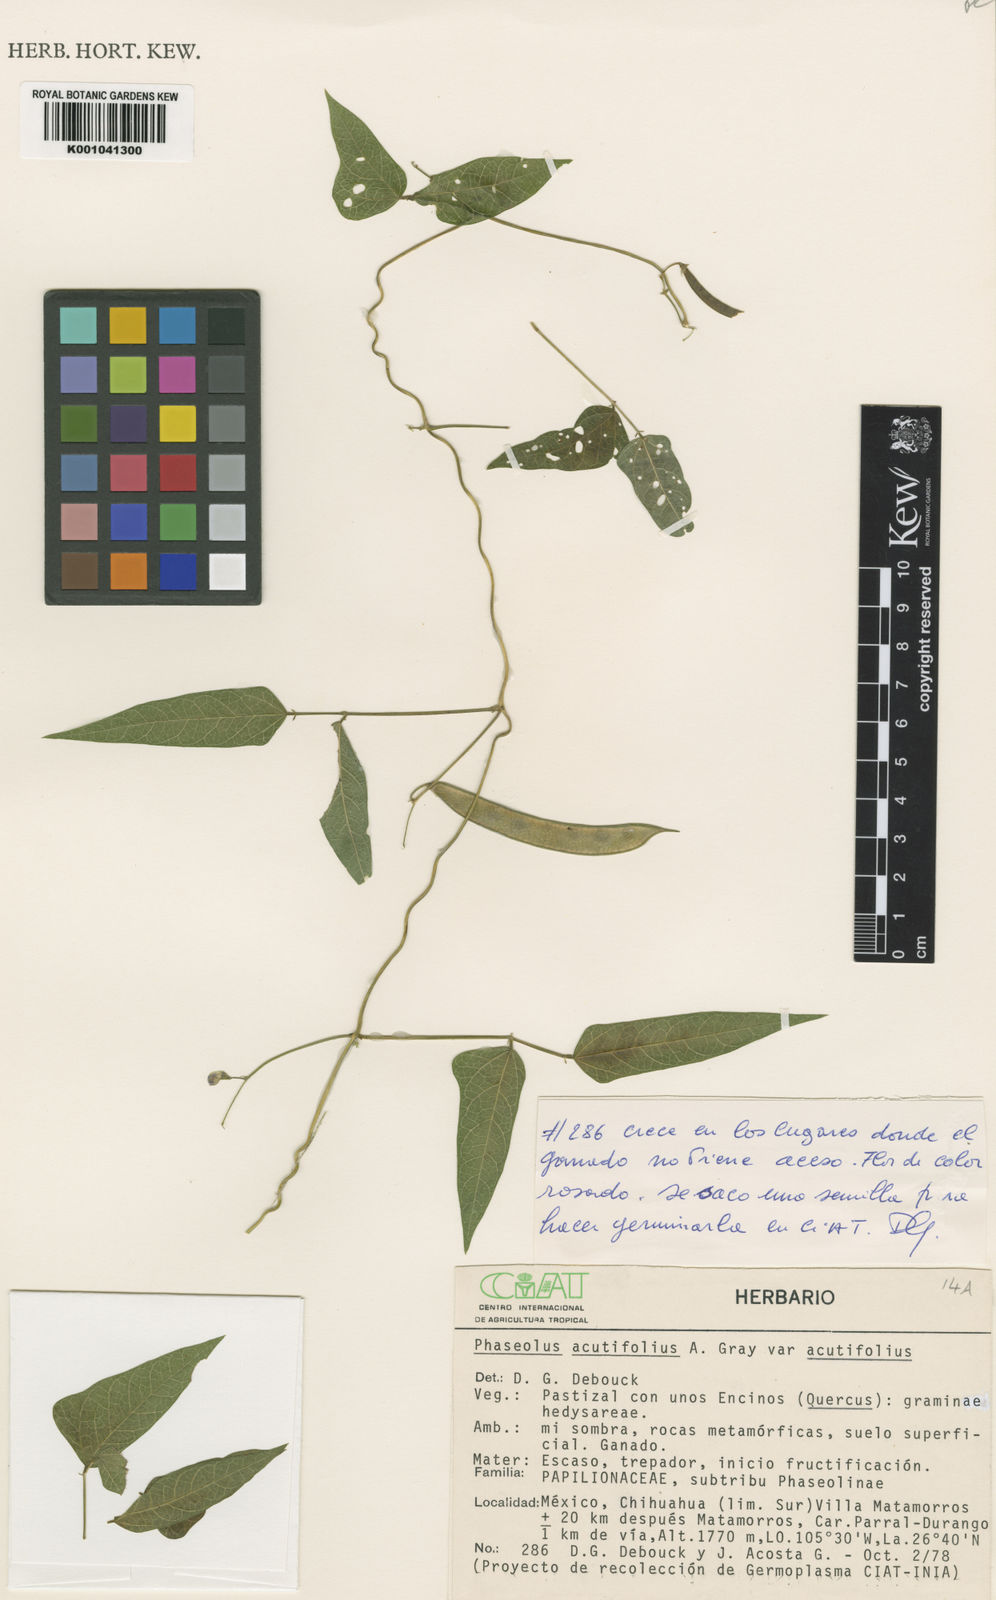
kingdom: Plantae
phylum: Tracheophyta
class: Magnoliopsida
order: Fabales
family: Fabaceae
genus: Phaseolus
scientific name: Phaseolus acutifolius
